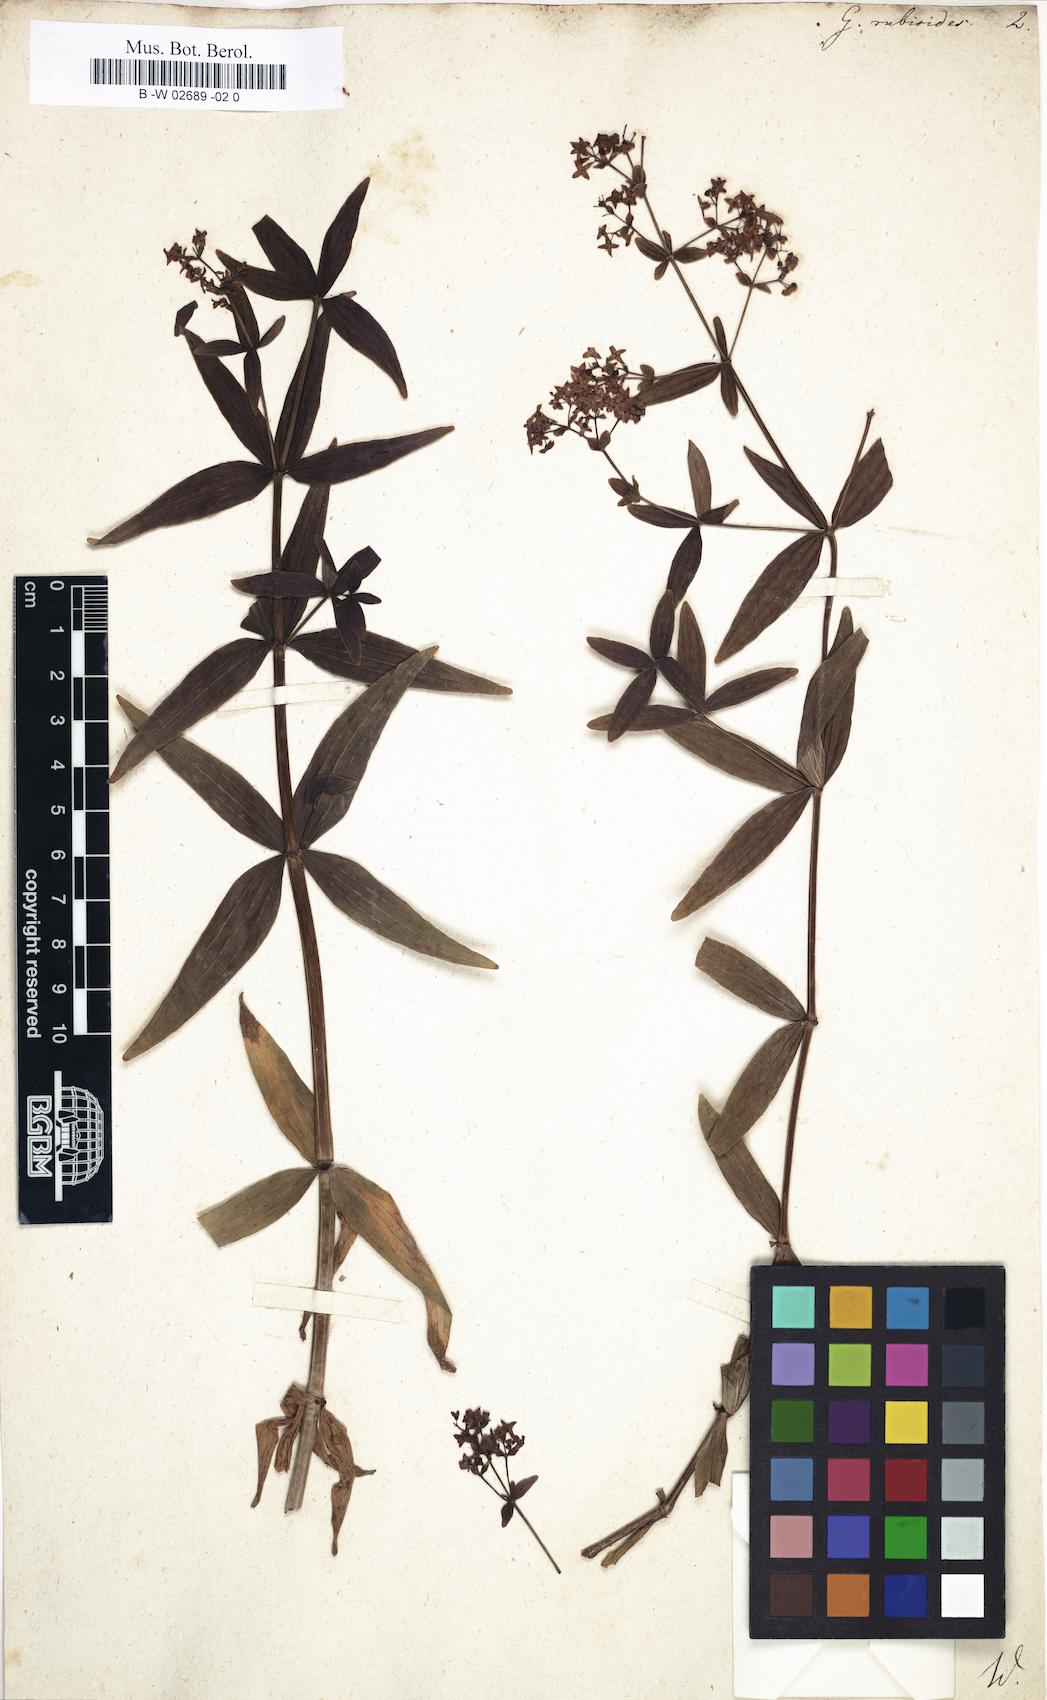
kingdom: Plantae
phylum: Tracheophyta
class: Magnoliopsida
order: Gentianales
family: Rubiaceae
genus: Galium
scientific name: Galium rubioides
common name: European bedstraw
